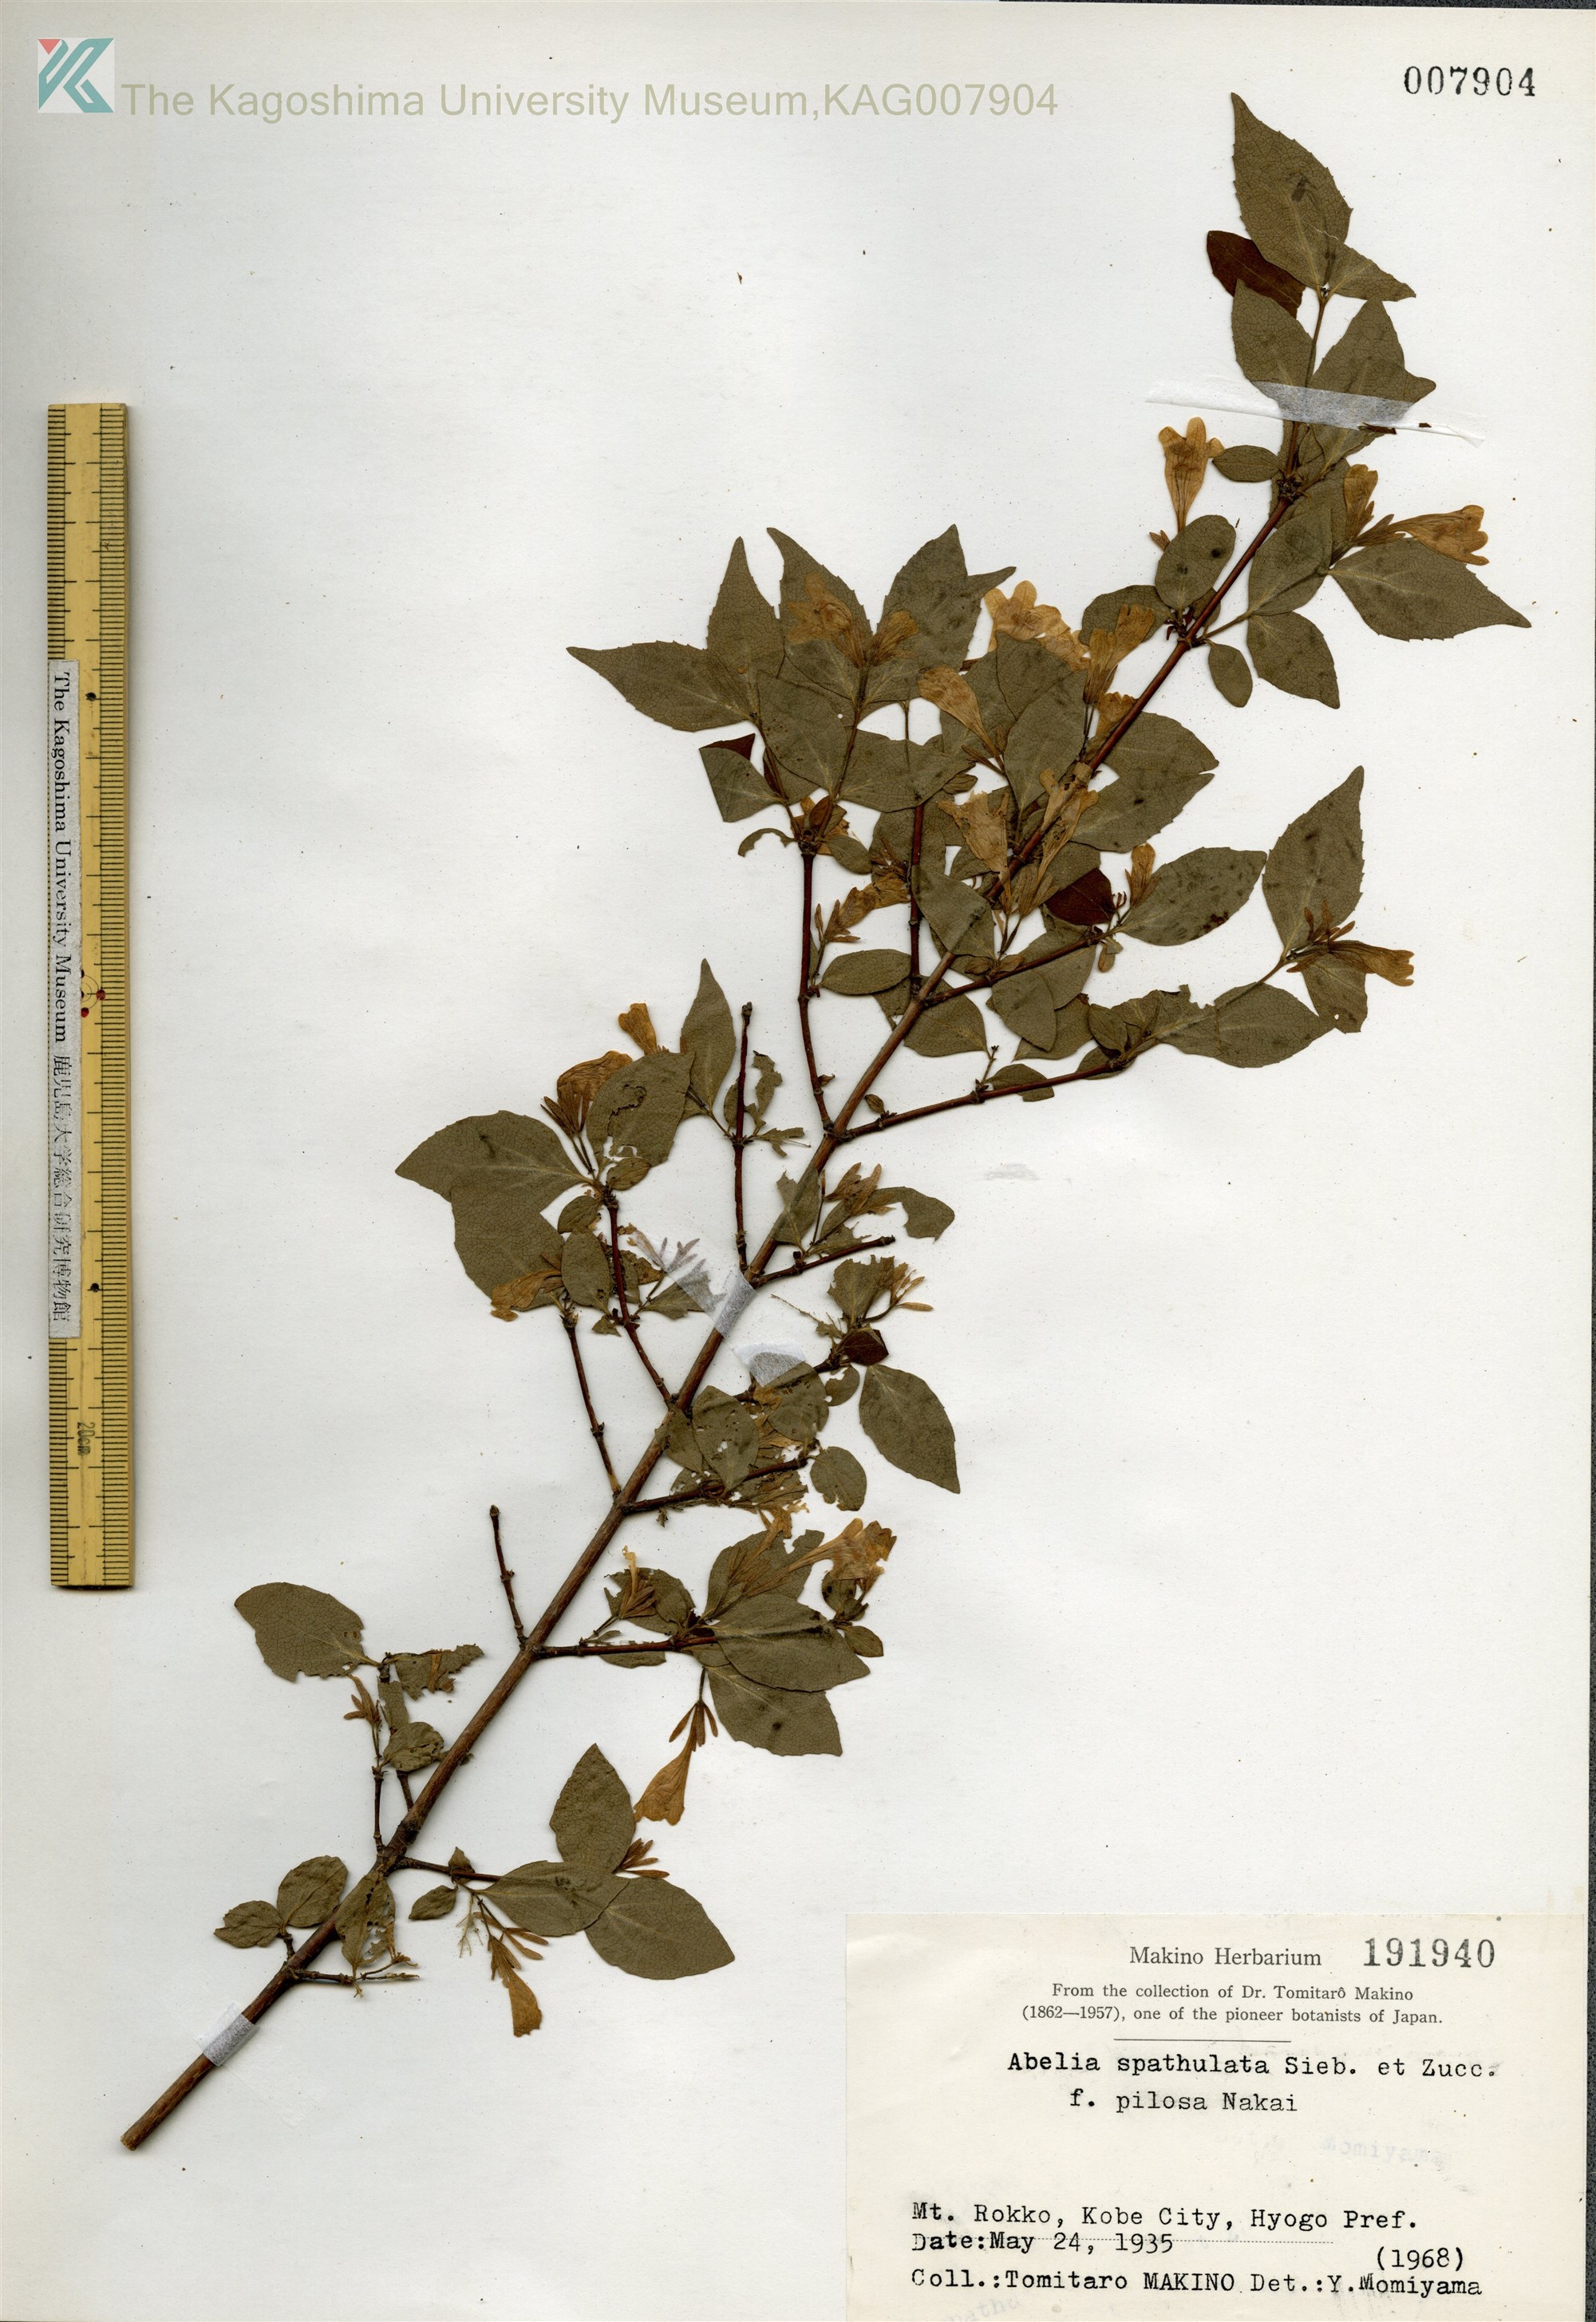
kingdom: Plantae
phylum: Tracheophyta
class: Magnoliopsida
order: Dipsacales
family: Caprifoliaceae
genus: Diabelia
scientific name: Diabelia spathulata
